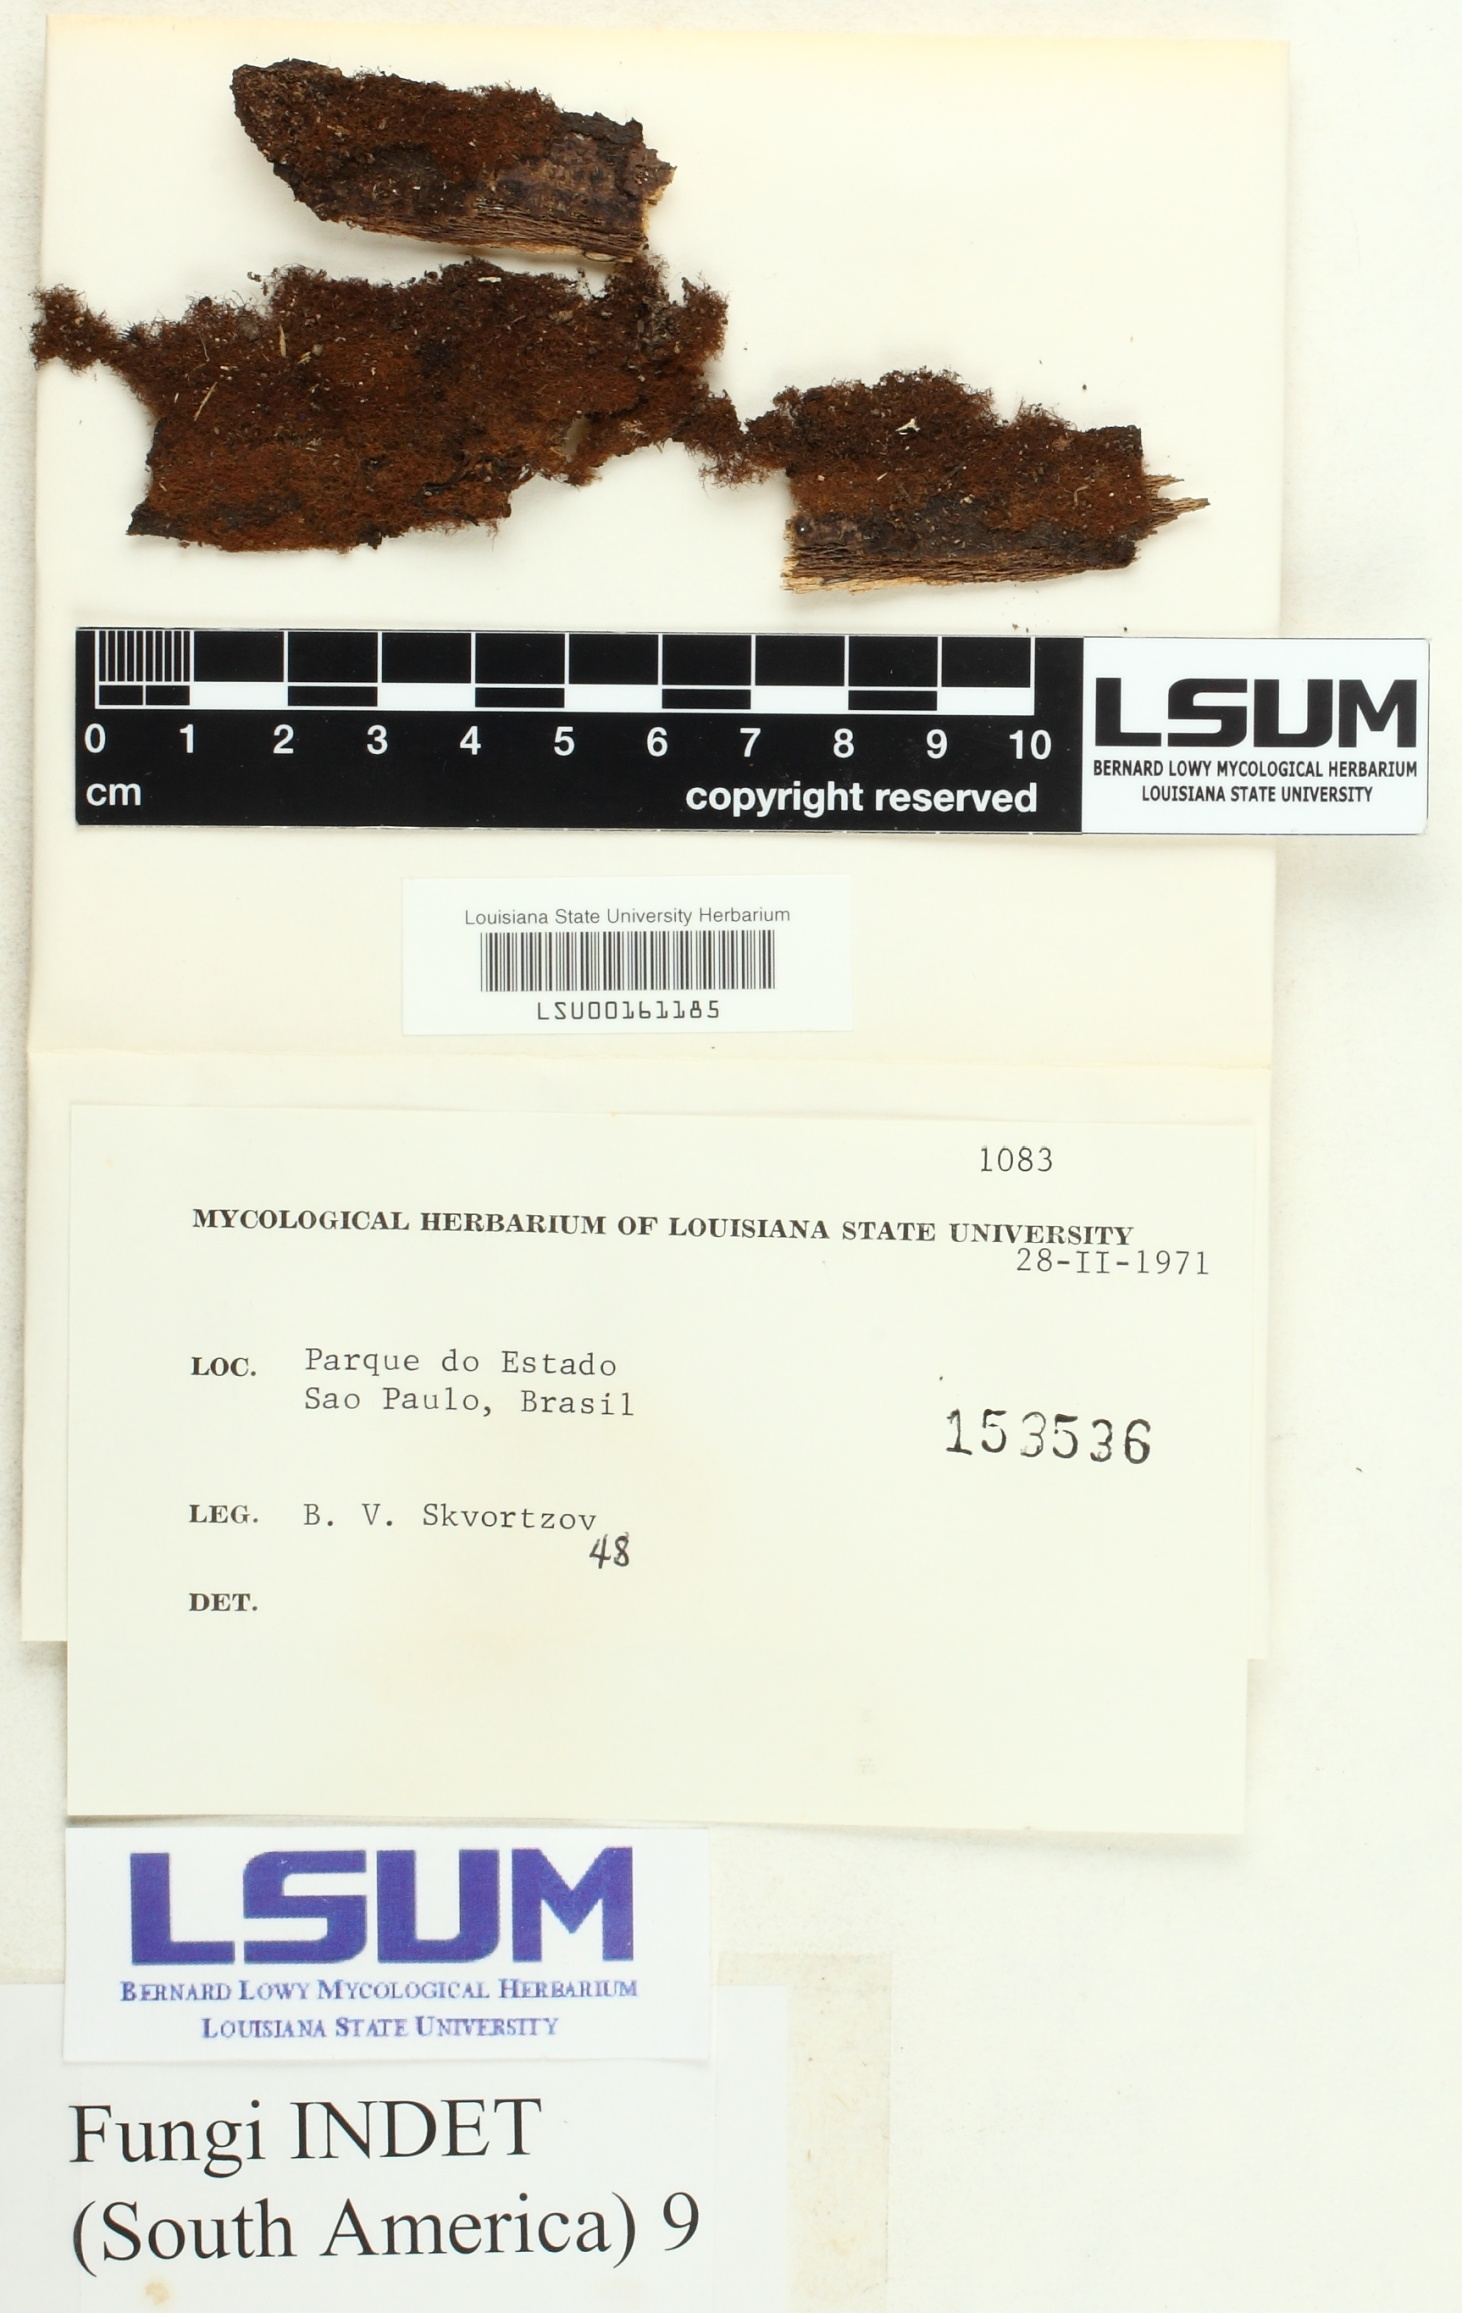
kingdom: Fungi
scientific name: Fungi
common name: Fungi
